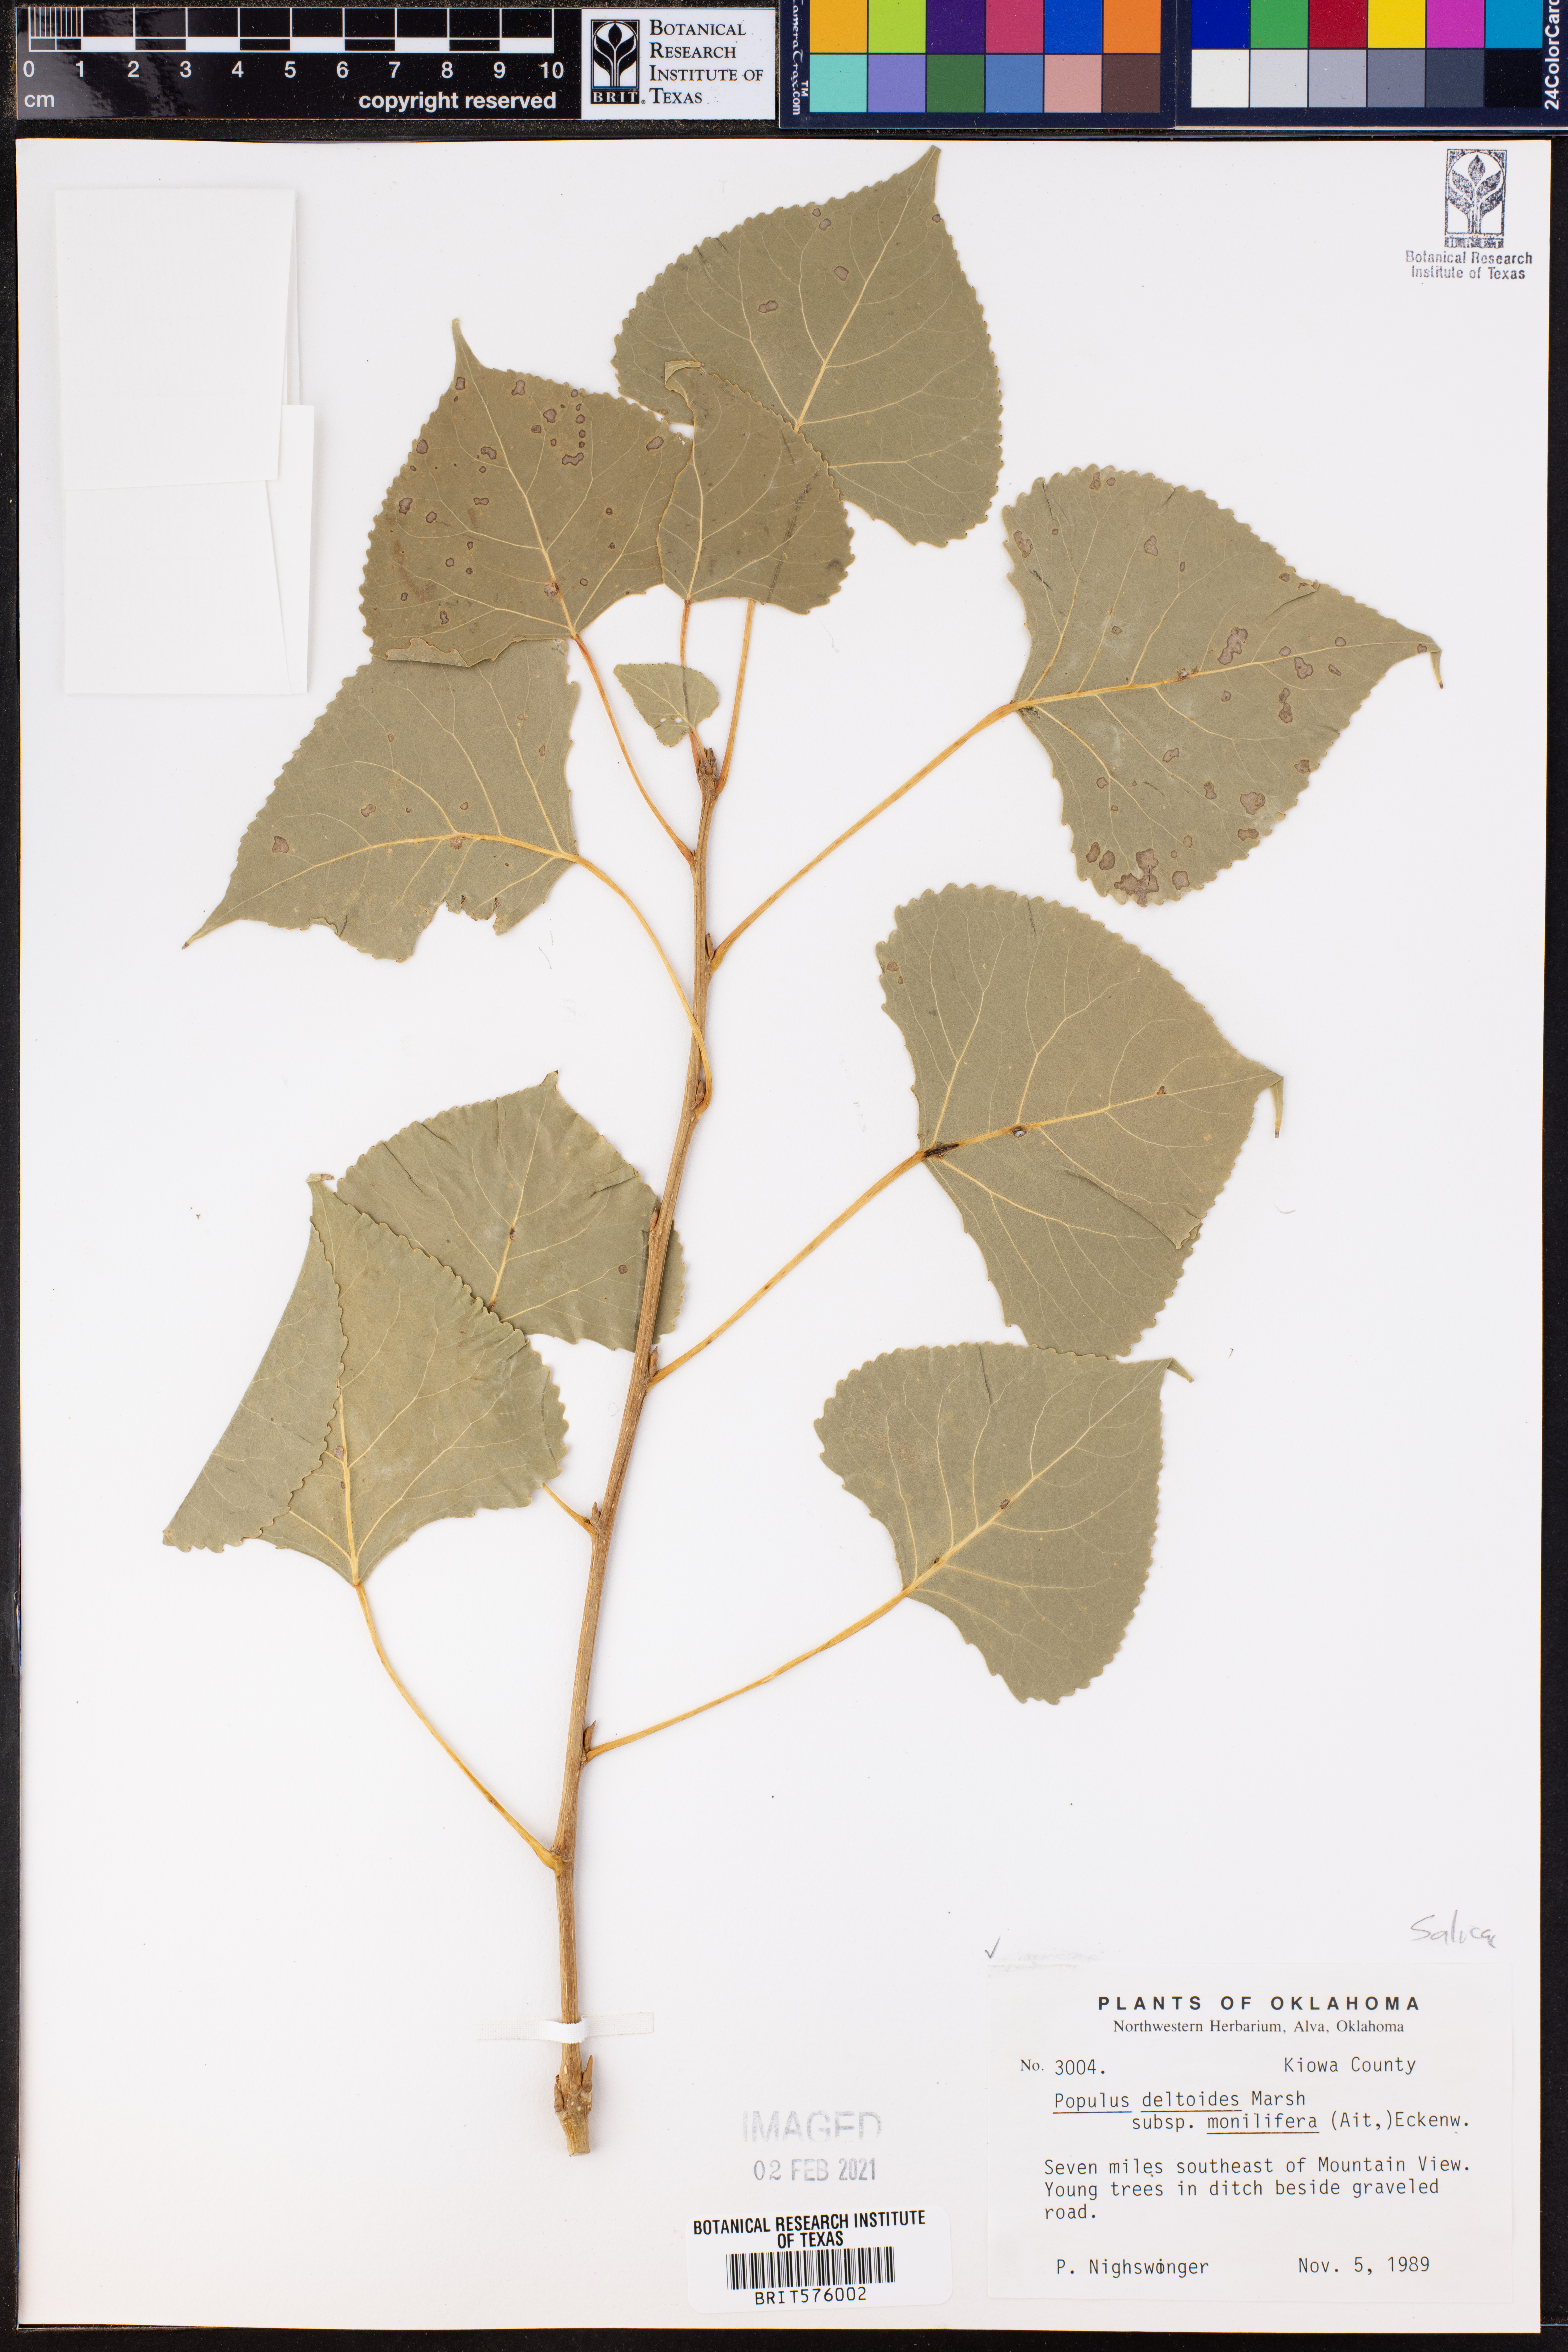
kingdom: Plantae
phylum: Tracheophyta
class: Magnoliopsida
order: Malpighiales
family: Salicaceae
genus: Populus
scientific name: Populus deltoides
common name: Eastern cottonwood
